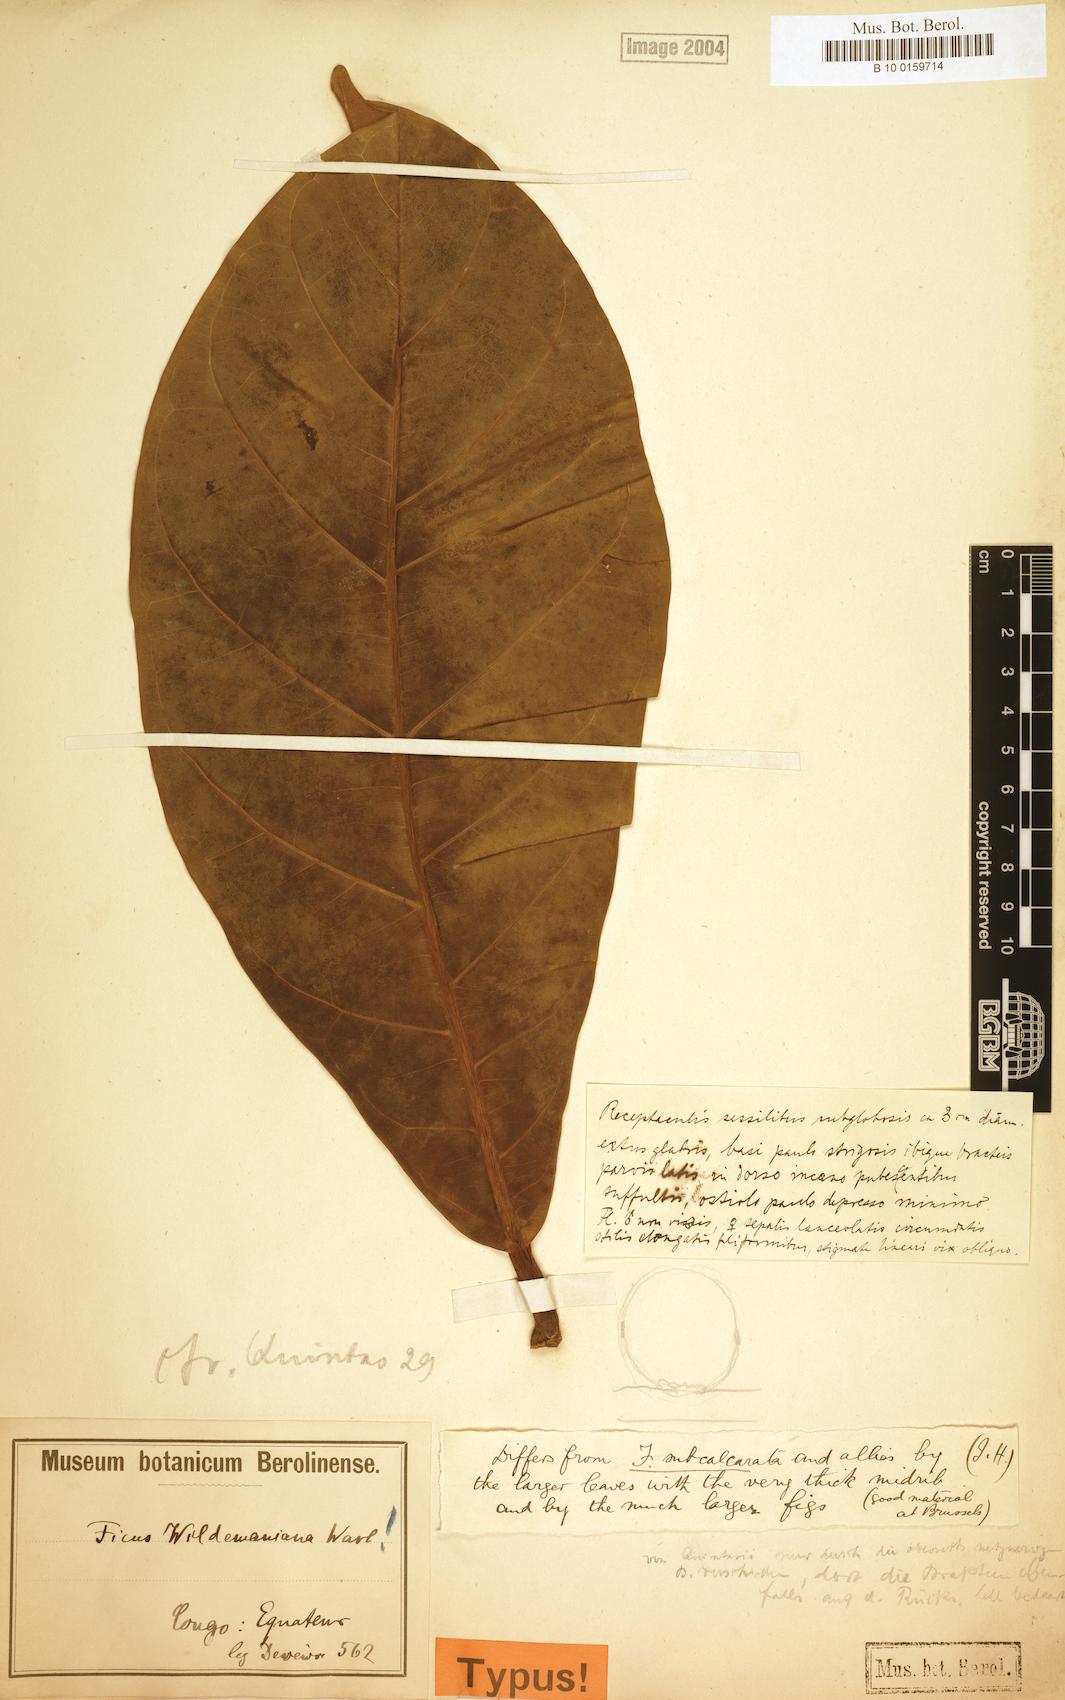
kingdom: Plantae
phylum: Tracheophyta
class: Magnoliopsida
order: Rosales
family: Moraceae
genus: Ficus
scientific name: Ficus wildemaniana
